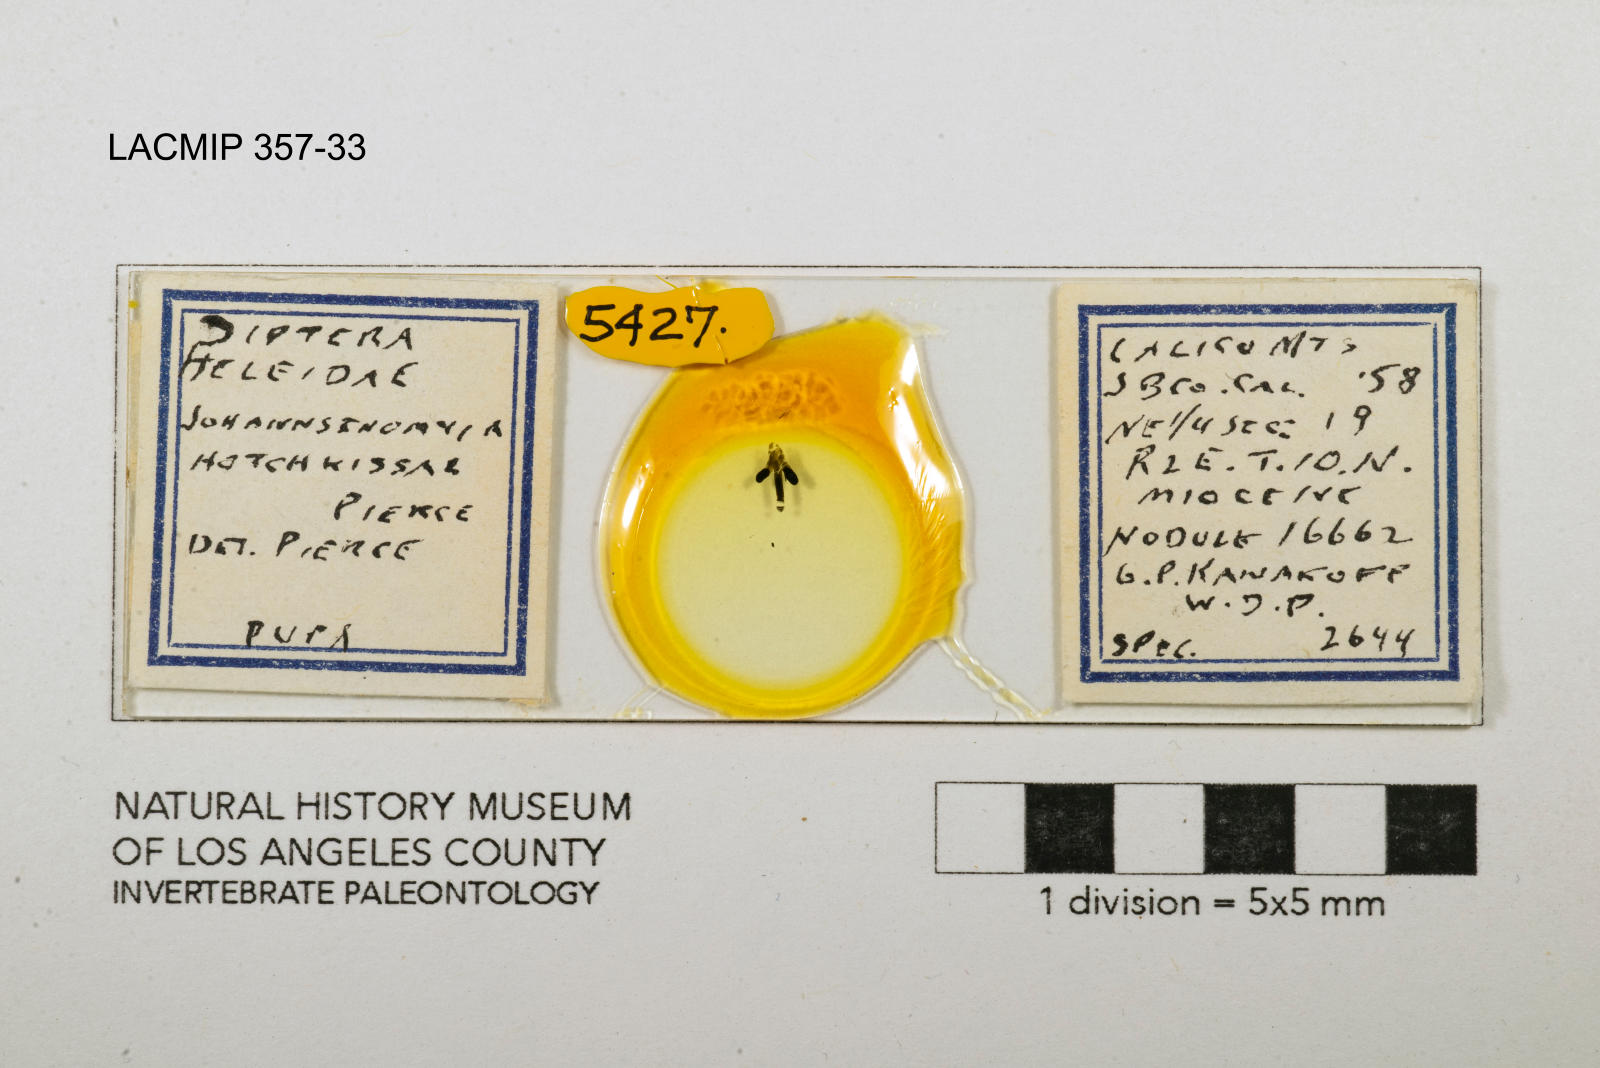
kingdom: Animalia
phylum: Arthropoda
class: Insecta
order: Diptera
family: Ceratopogonidae
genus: Johannsenomyia
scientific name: Johannsenomyia
